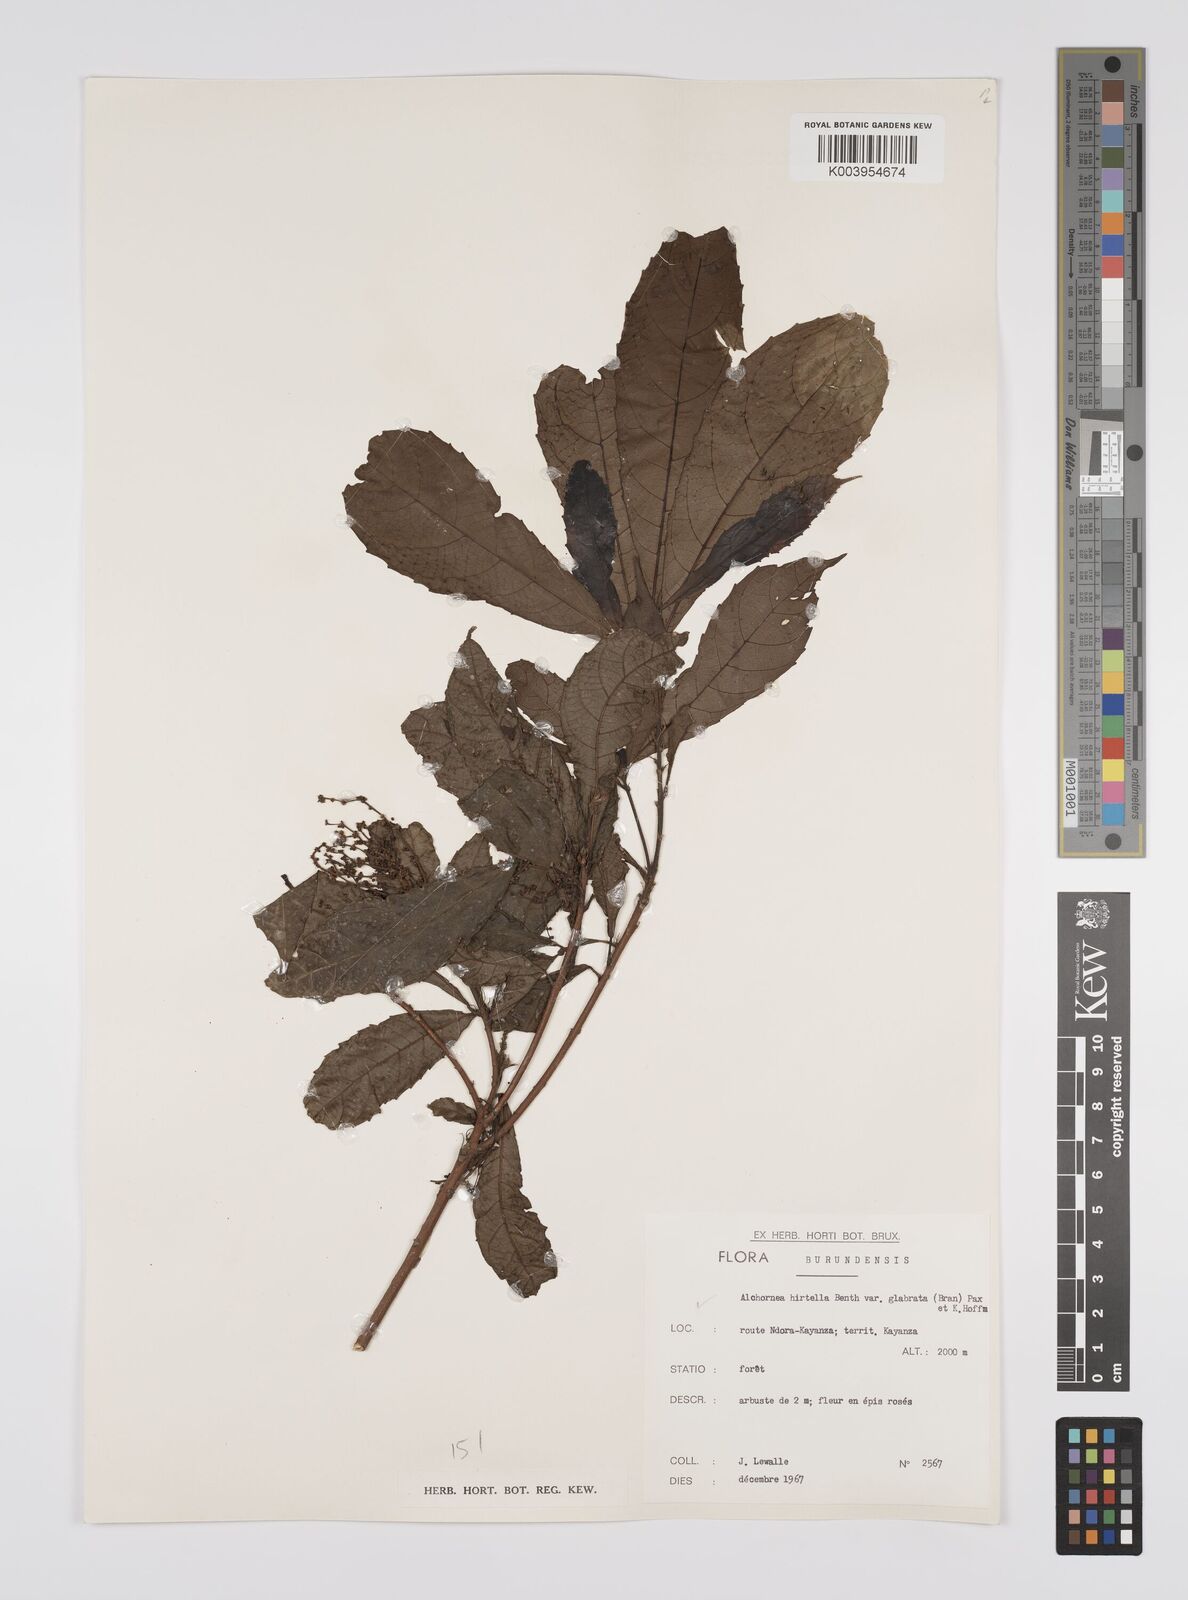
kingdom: Plantae
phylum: Tracheophyta
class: Magnoliopsida
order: Malpighiales
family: Euphorbiaceae
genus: Alchornea
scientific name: Alchornea hirtella
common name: Forest bead-string
